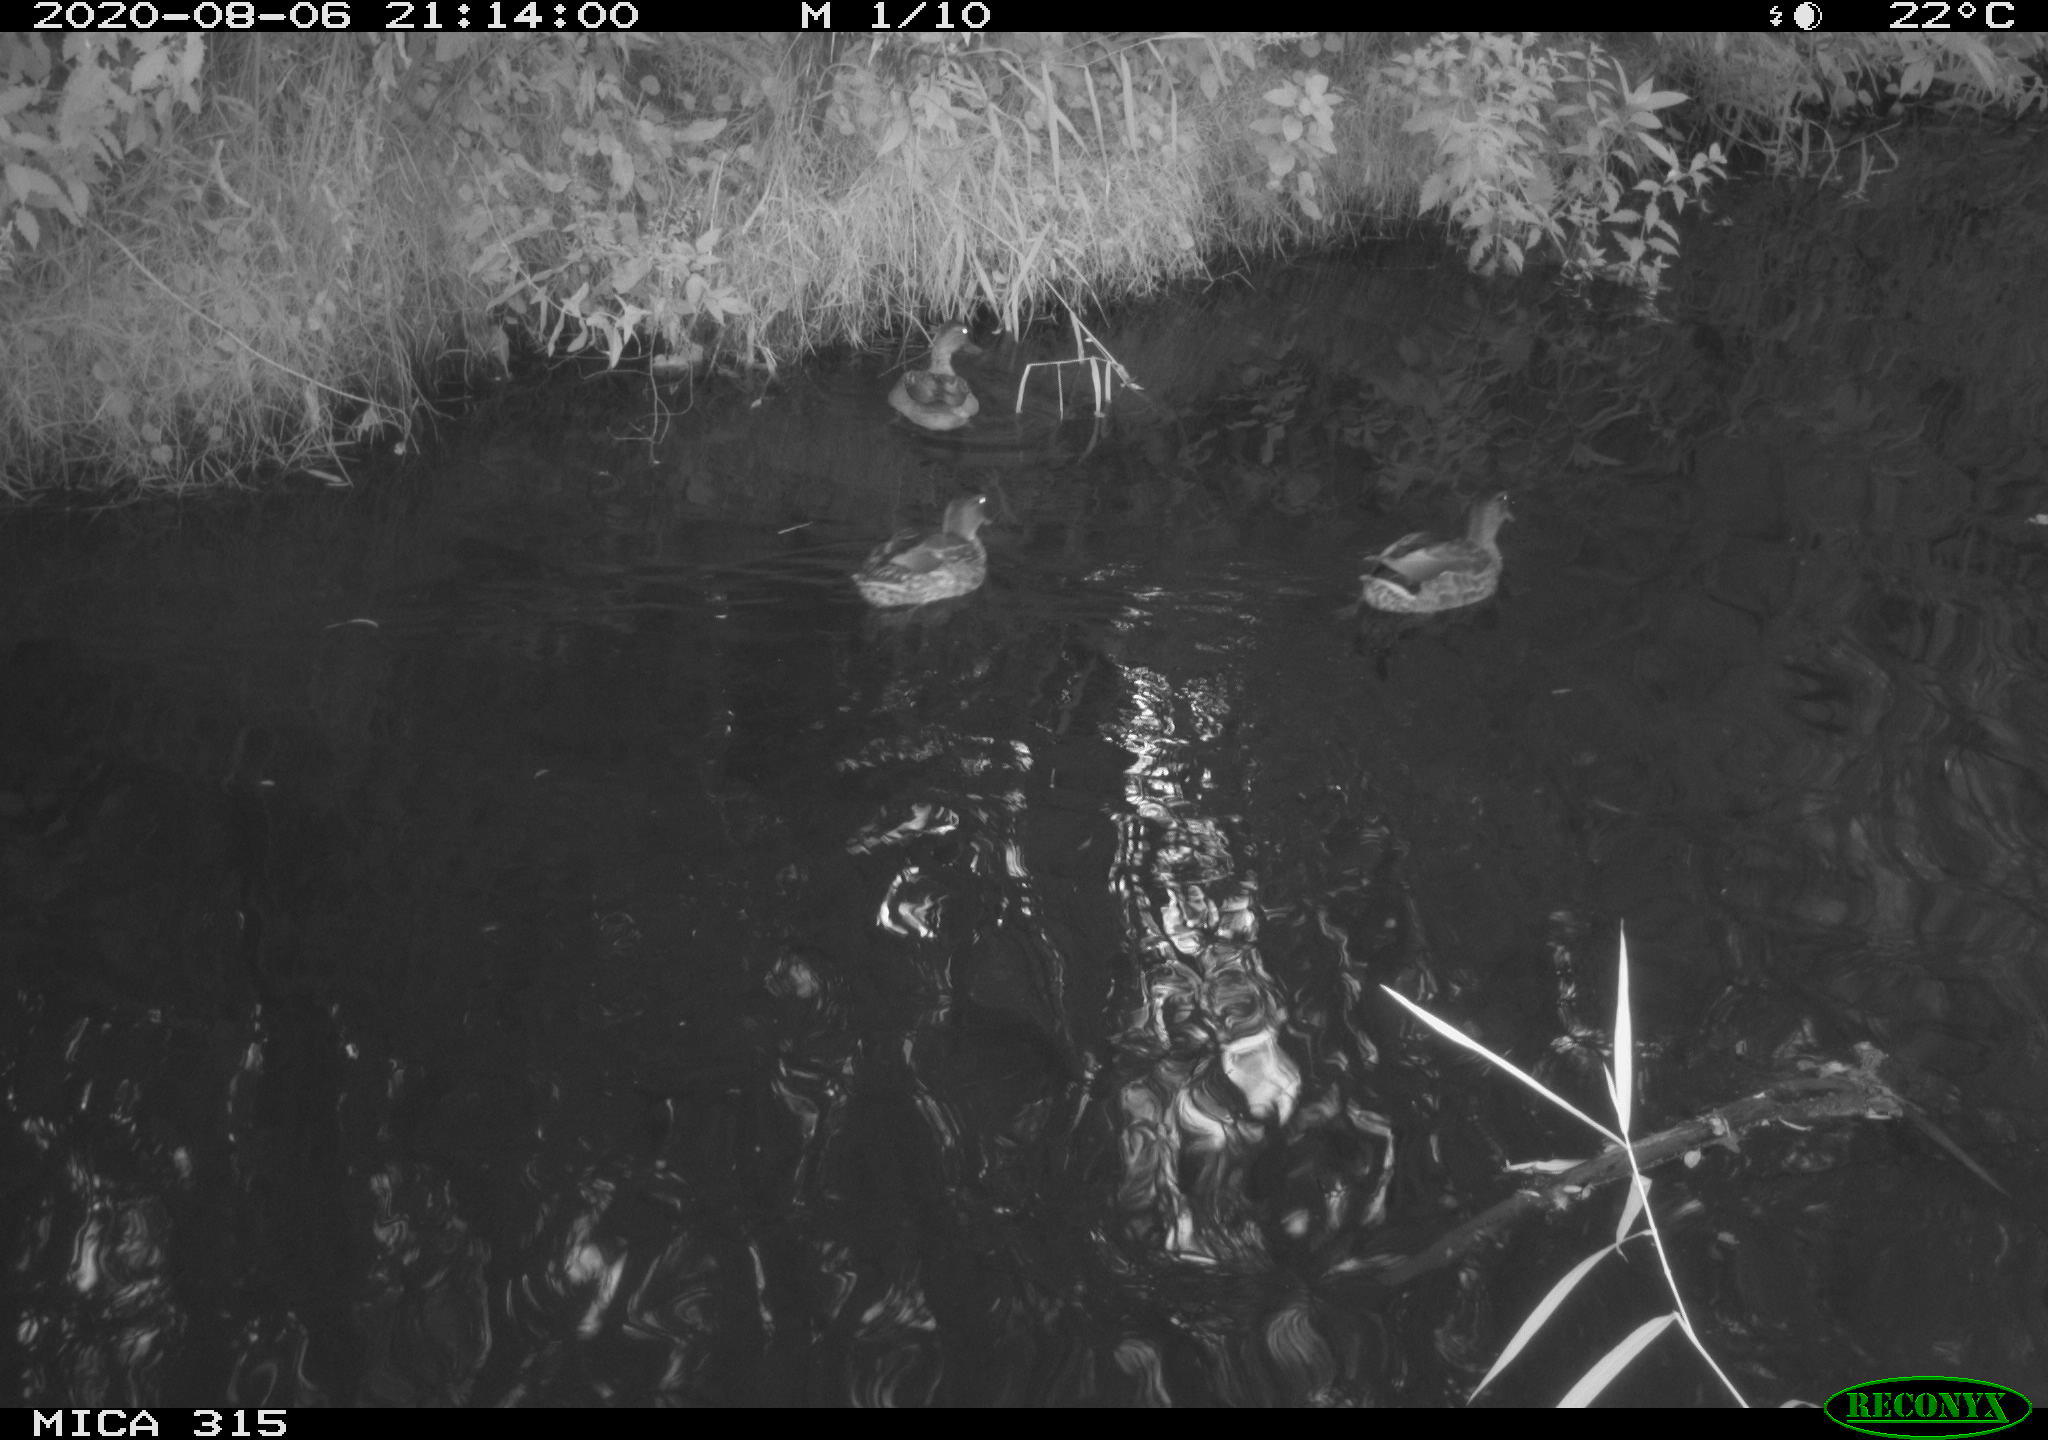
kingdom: Animalia
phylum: Chordata
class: Aves
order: Anseriformes
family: Anatidae
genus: Anas
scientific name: Anas platyrhynchos
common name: Mallard
